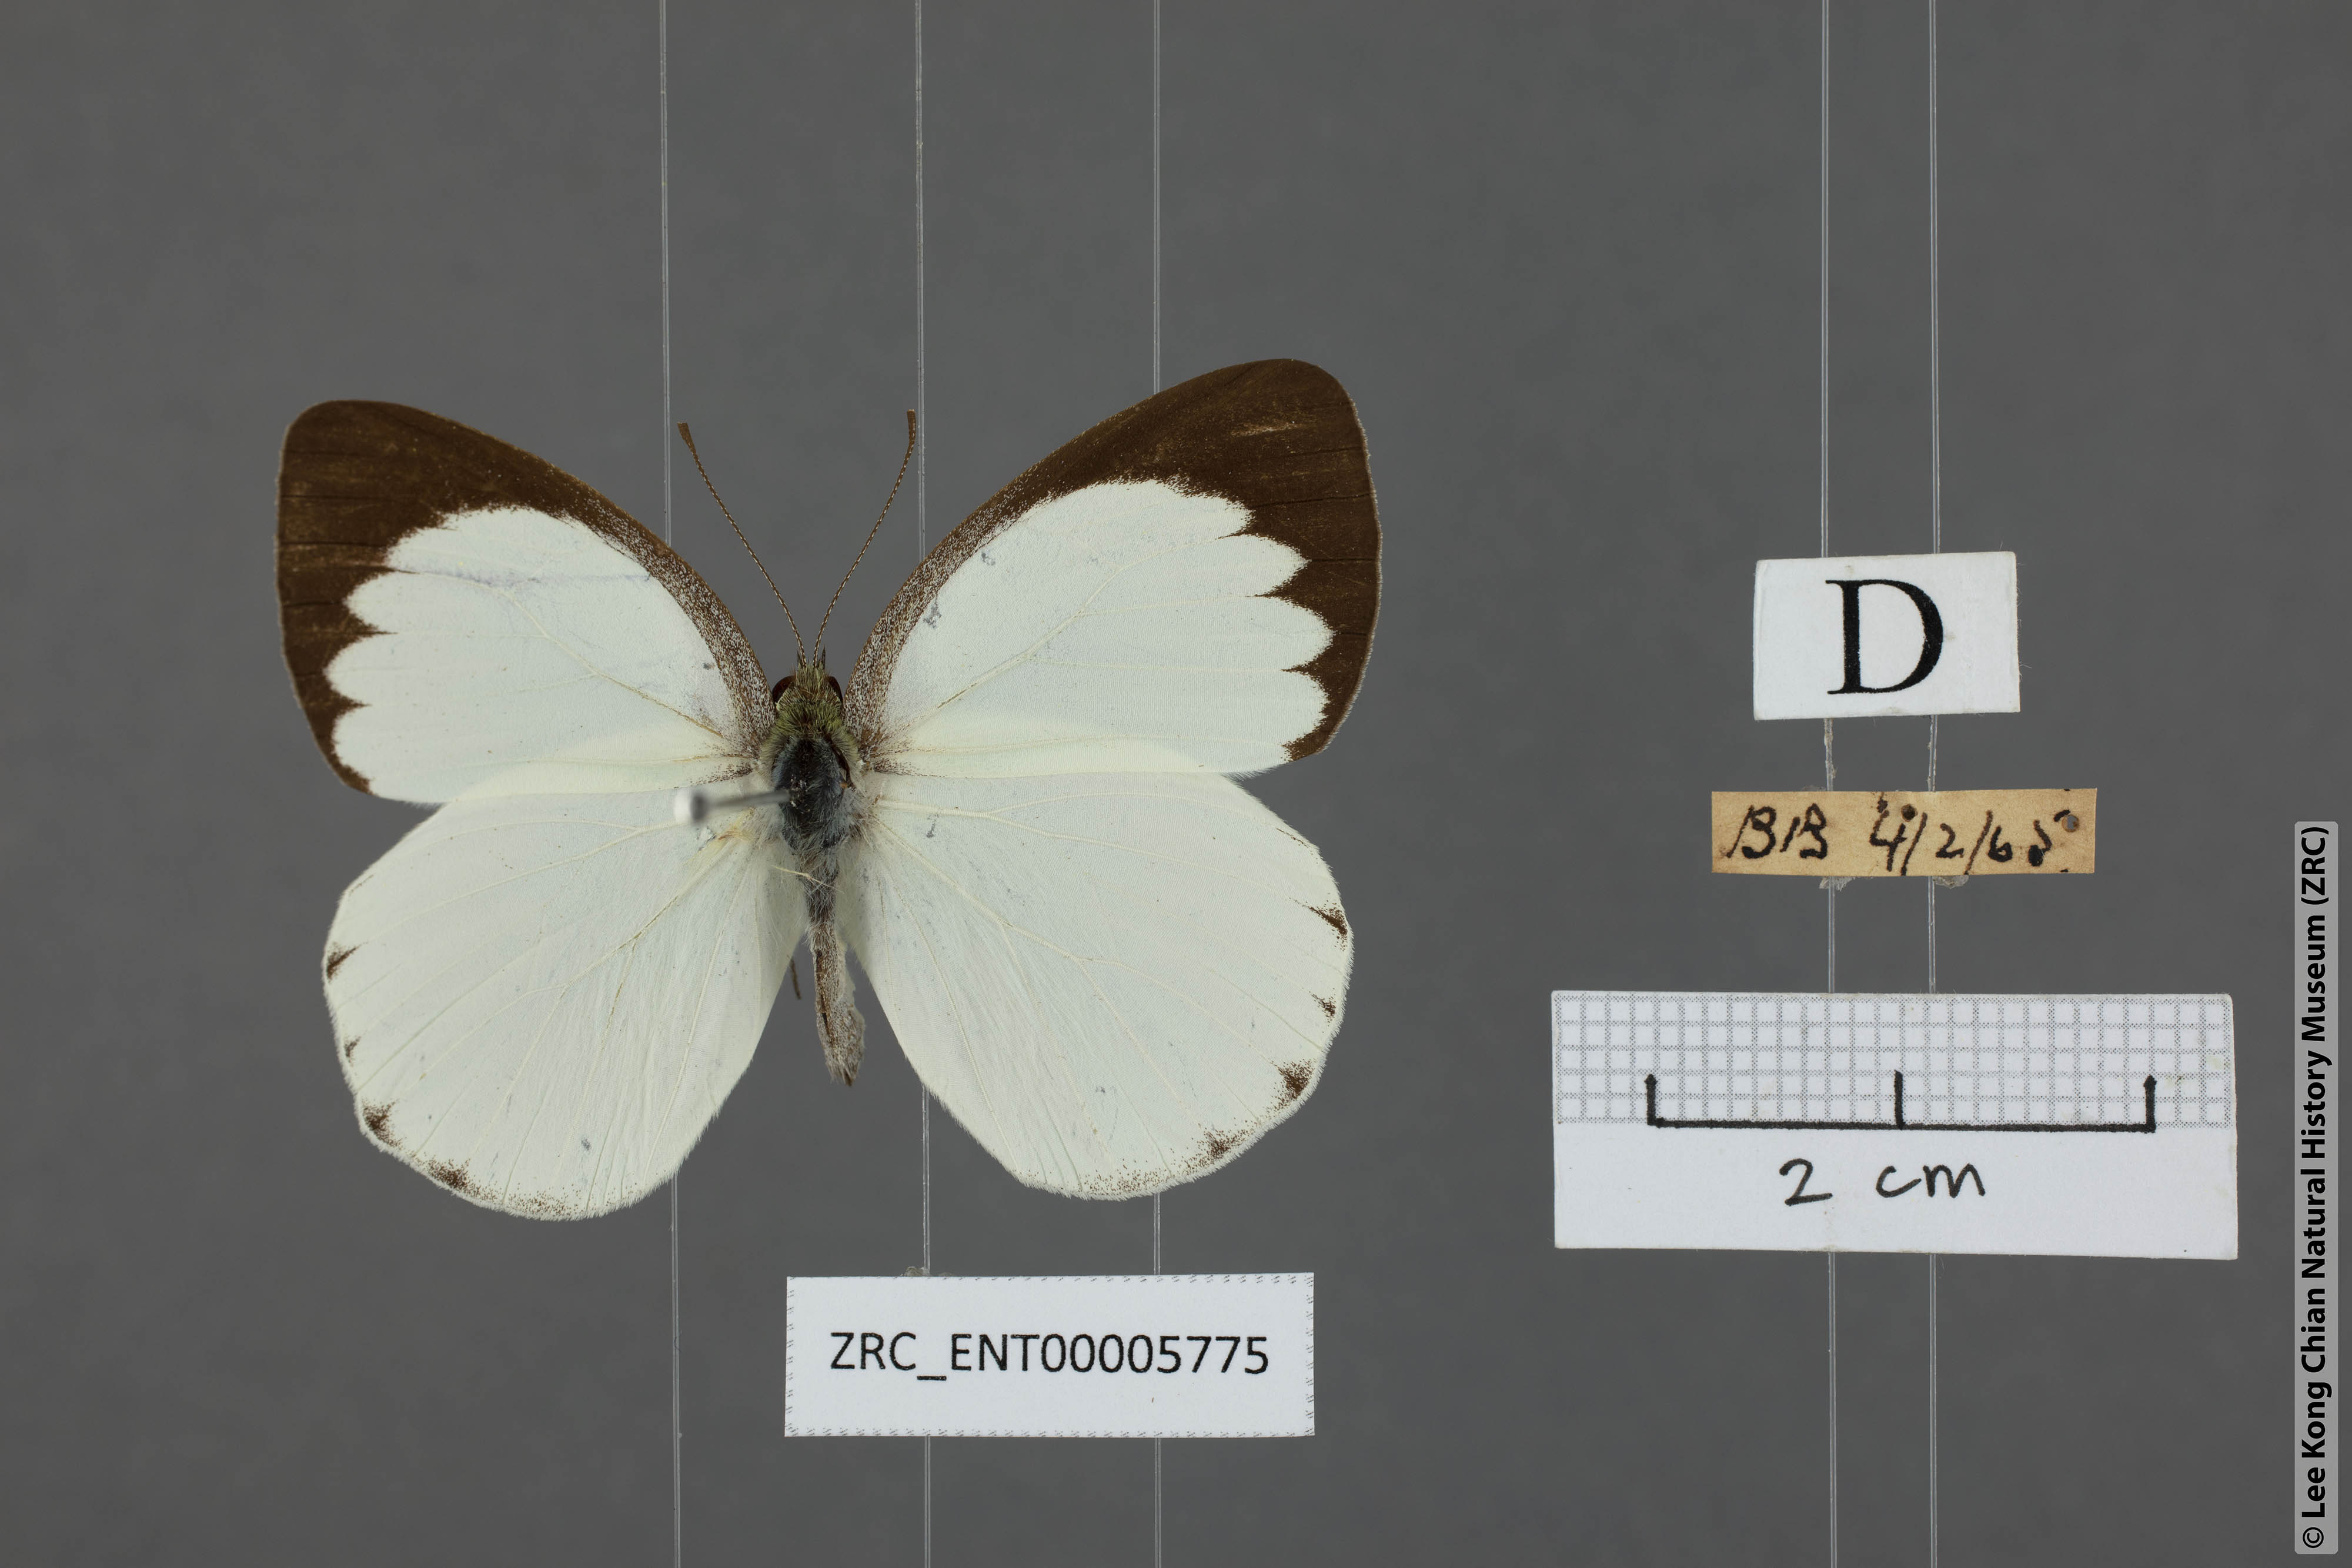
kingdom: Animalia
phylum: Arthropoda
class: Insecta
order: Lepidoptera
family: Pieridae
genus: Phrissura
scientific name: Phrissura aegis
